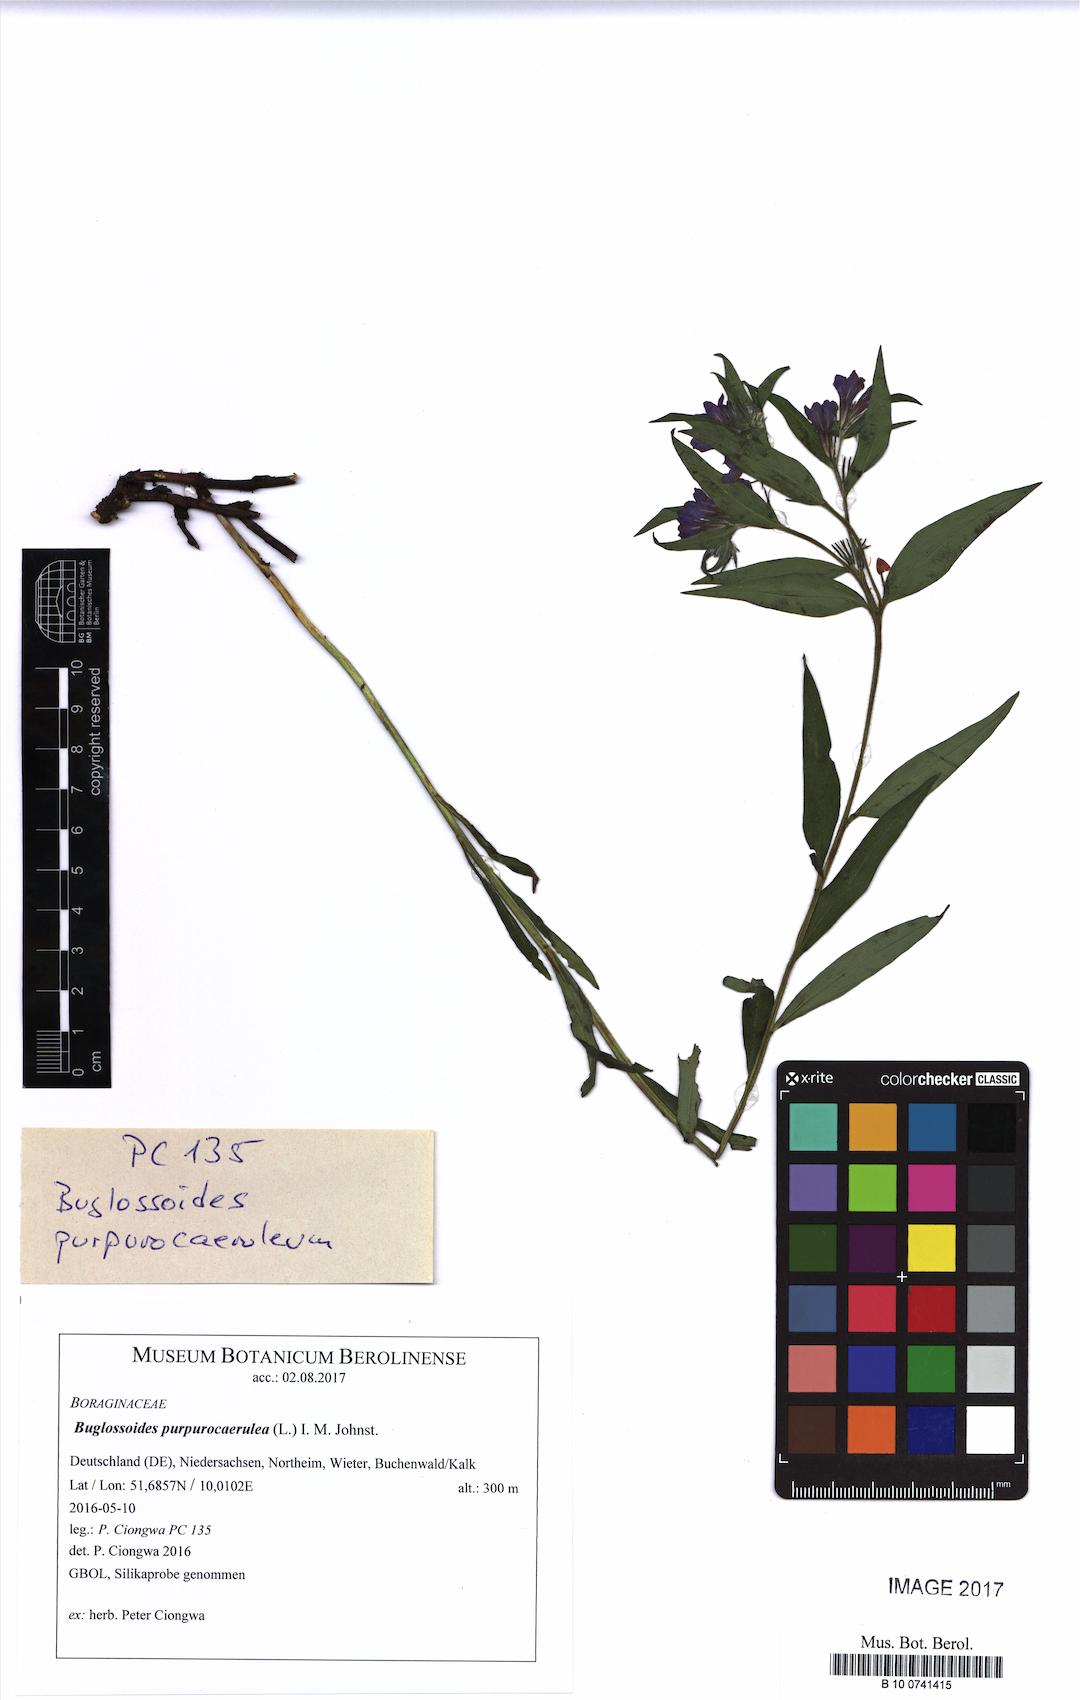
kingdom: Plantae
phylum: Tracheophyta
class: Magnoliopsida
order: Boraginales
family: Boraginaceae
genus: Aegonychon
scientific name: Aegonychon purpurocaeruleum
